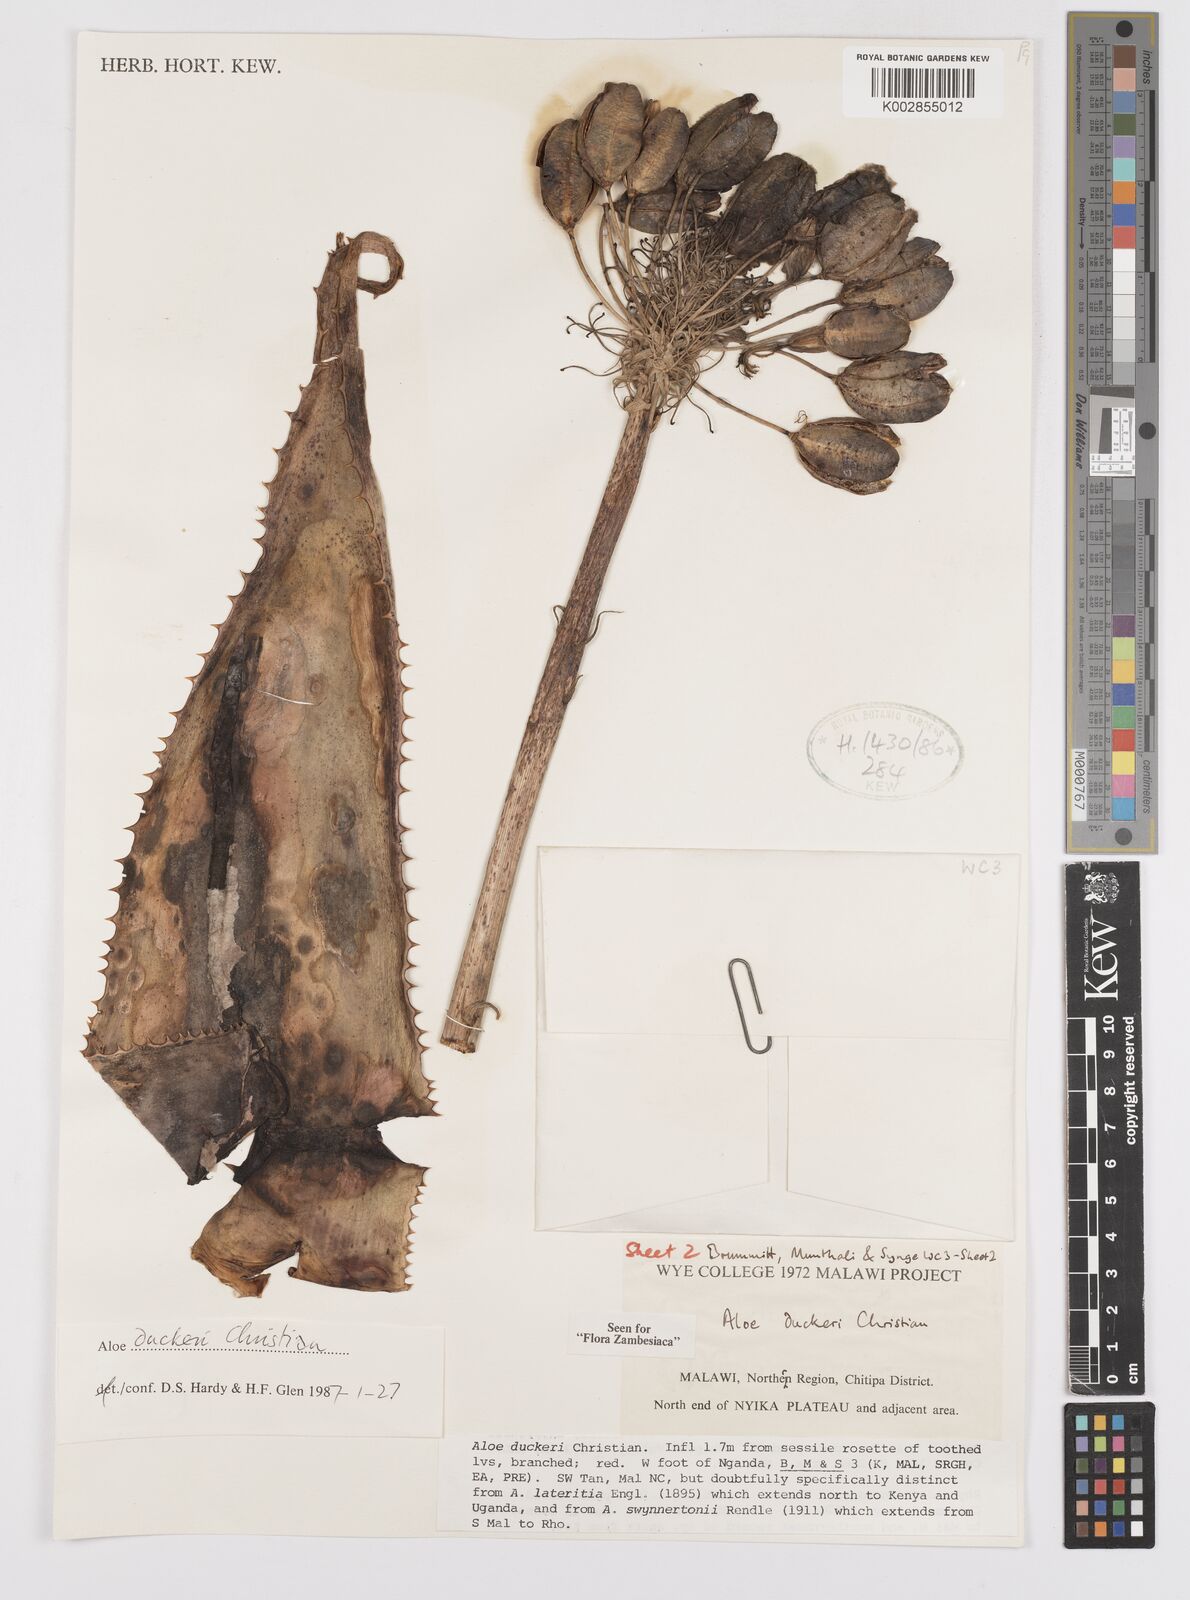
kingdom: Plantae
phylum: Tracheophyta
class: Liliopsida
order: Asparagales
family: Asphodelaceae
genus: Aloe
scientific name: Aloe duckeri
